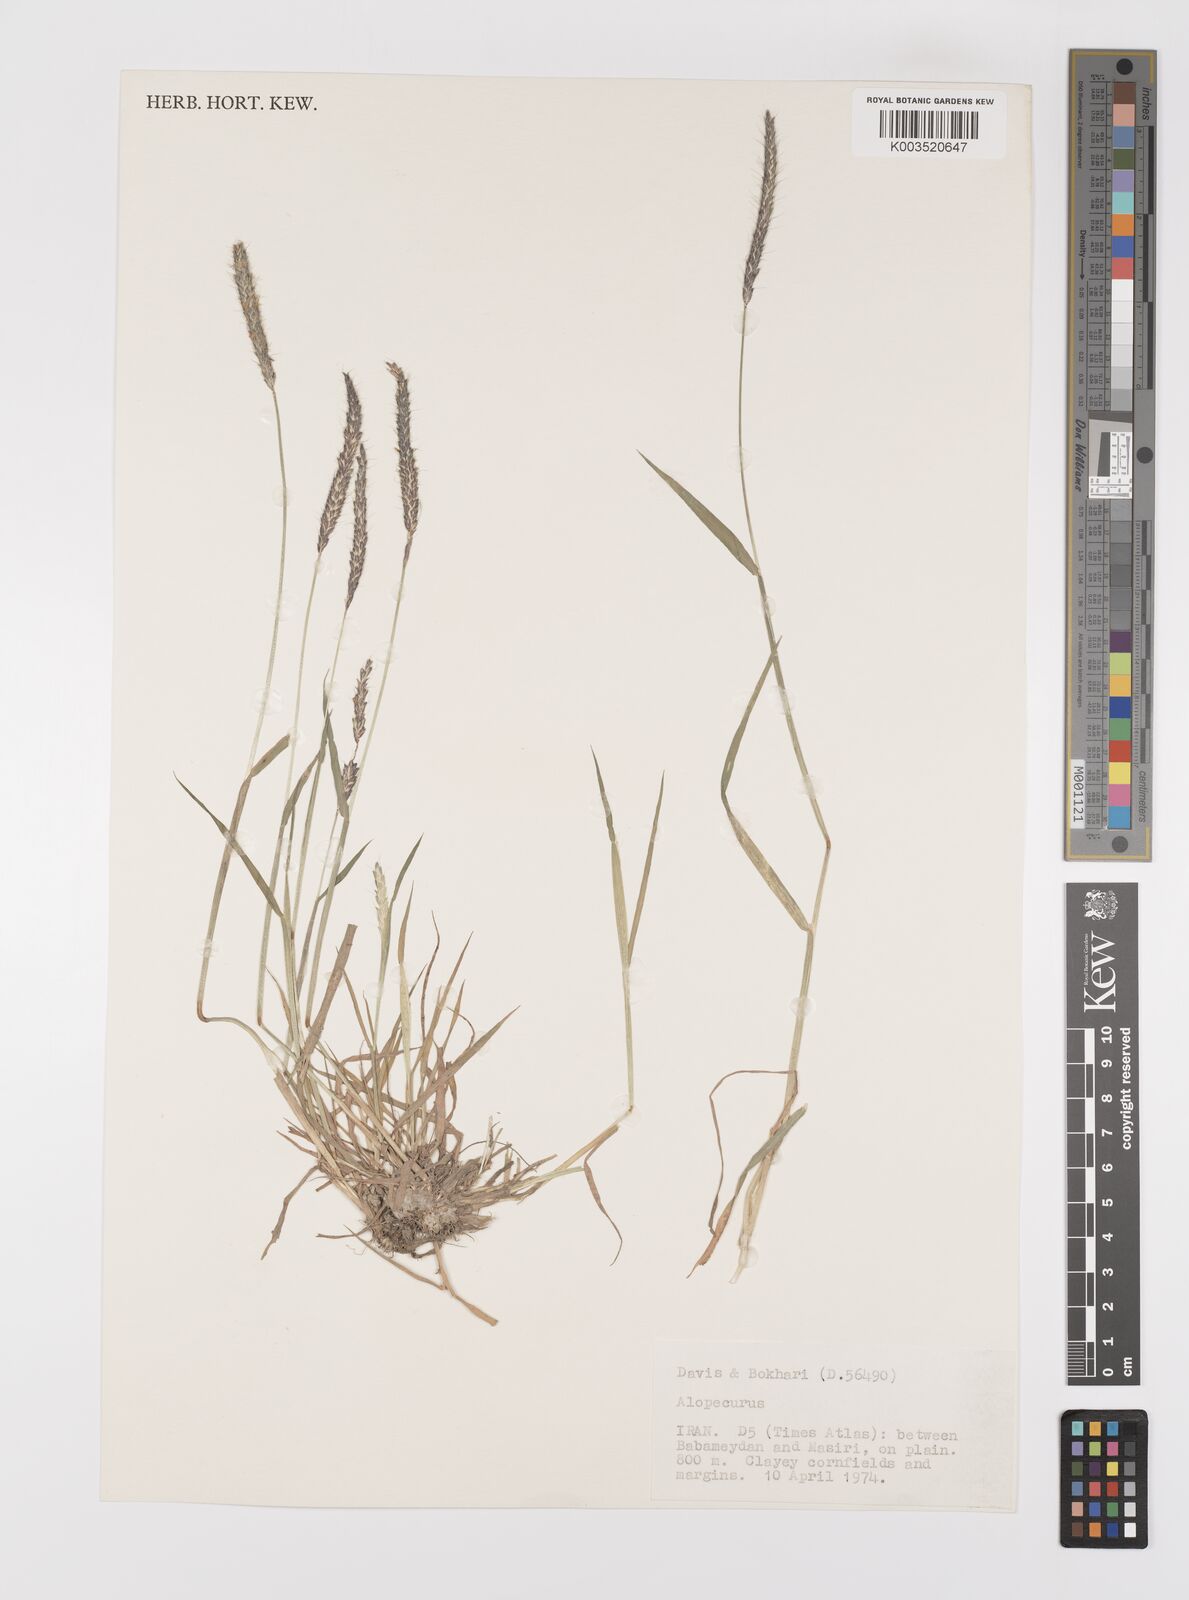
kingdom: Plantae
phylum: Tracheophyta
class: Liliopsida
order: Poales
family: Poaceae
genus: Alopecurus
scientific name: Alopecurus
